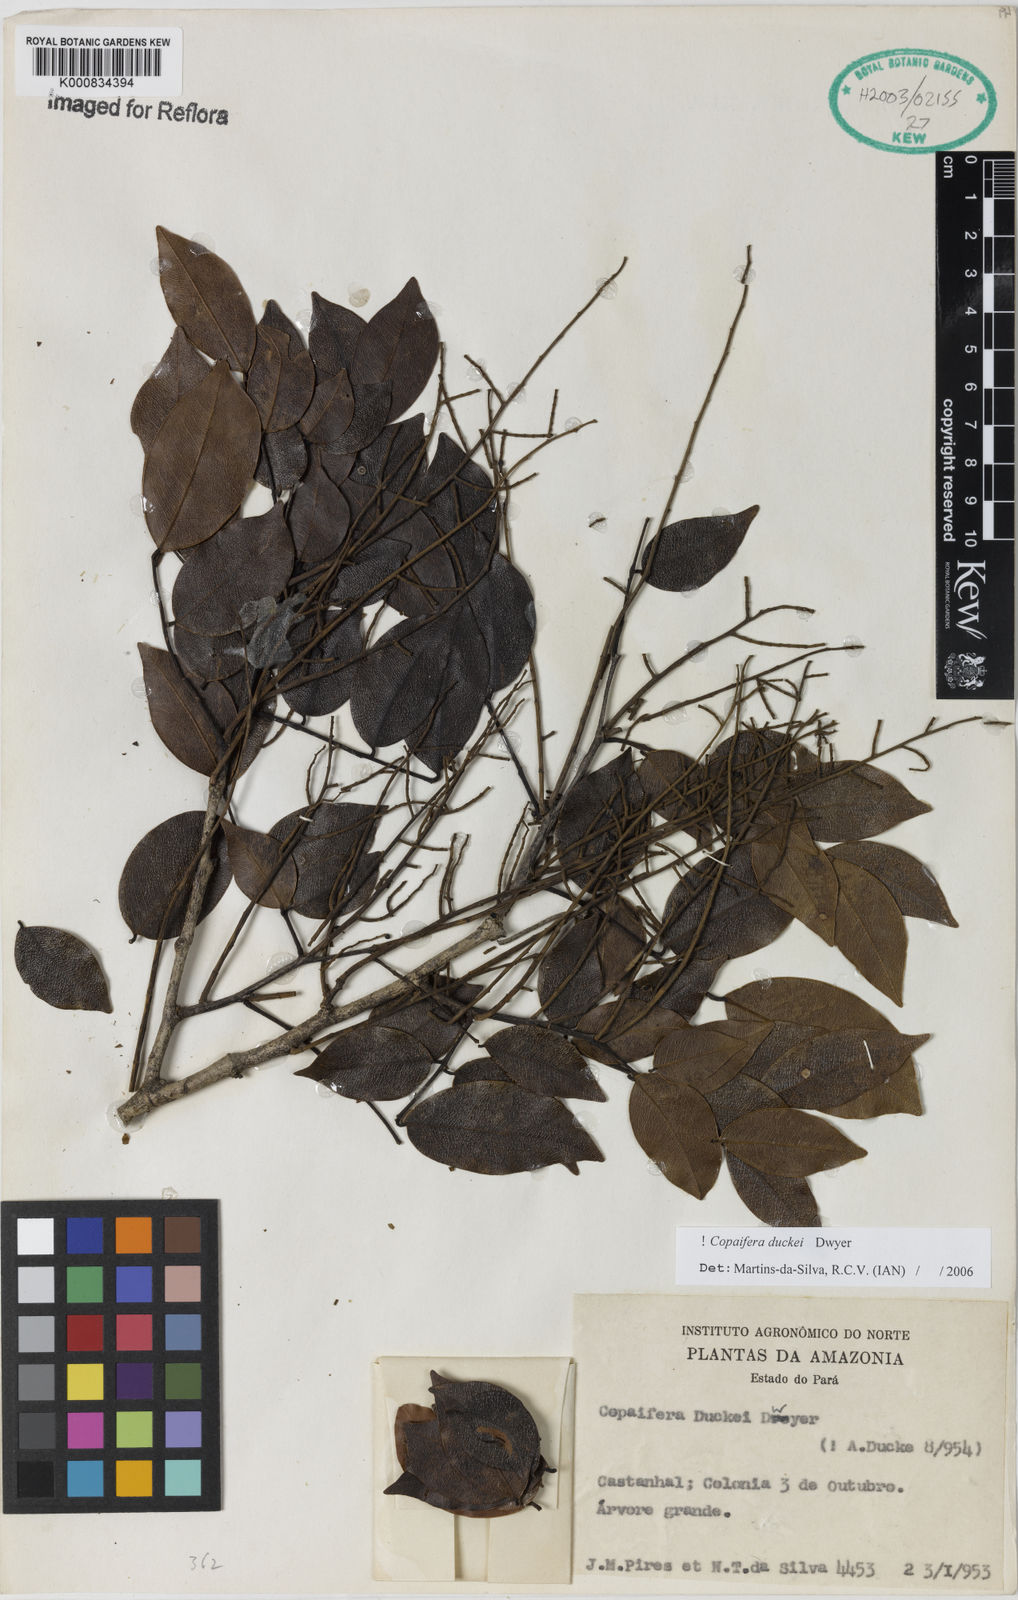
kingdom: Plantae
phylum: Tracheophyta
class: Magnoliopsida
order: Fabales
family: Fabaceae
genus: Copaifera
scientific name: Copaifera duckei
